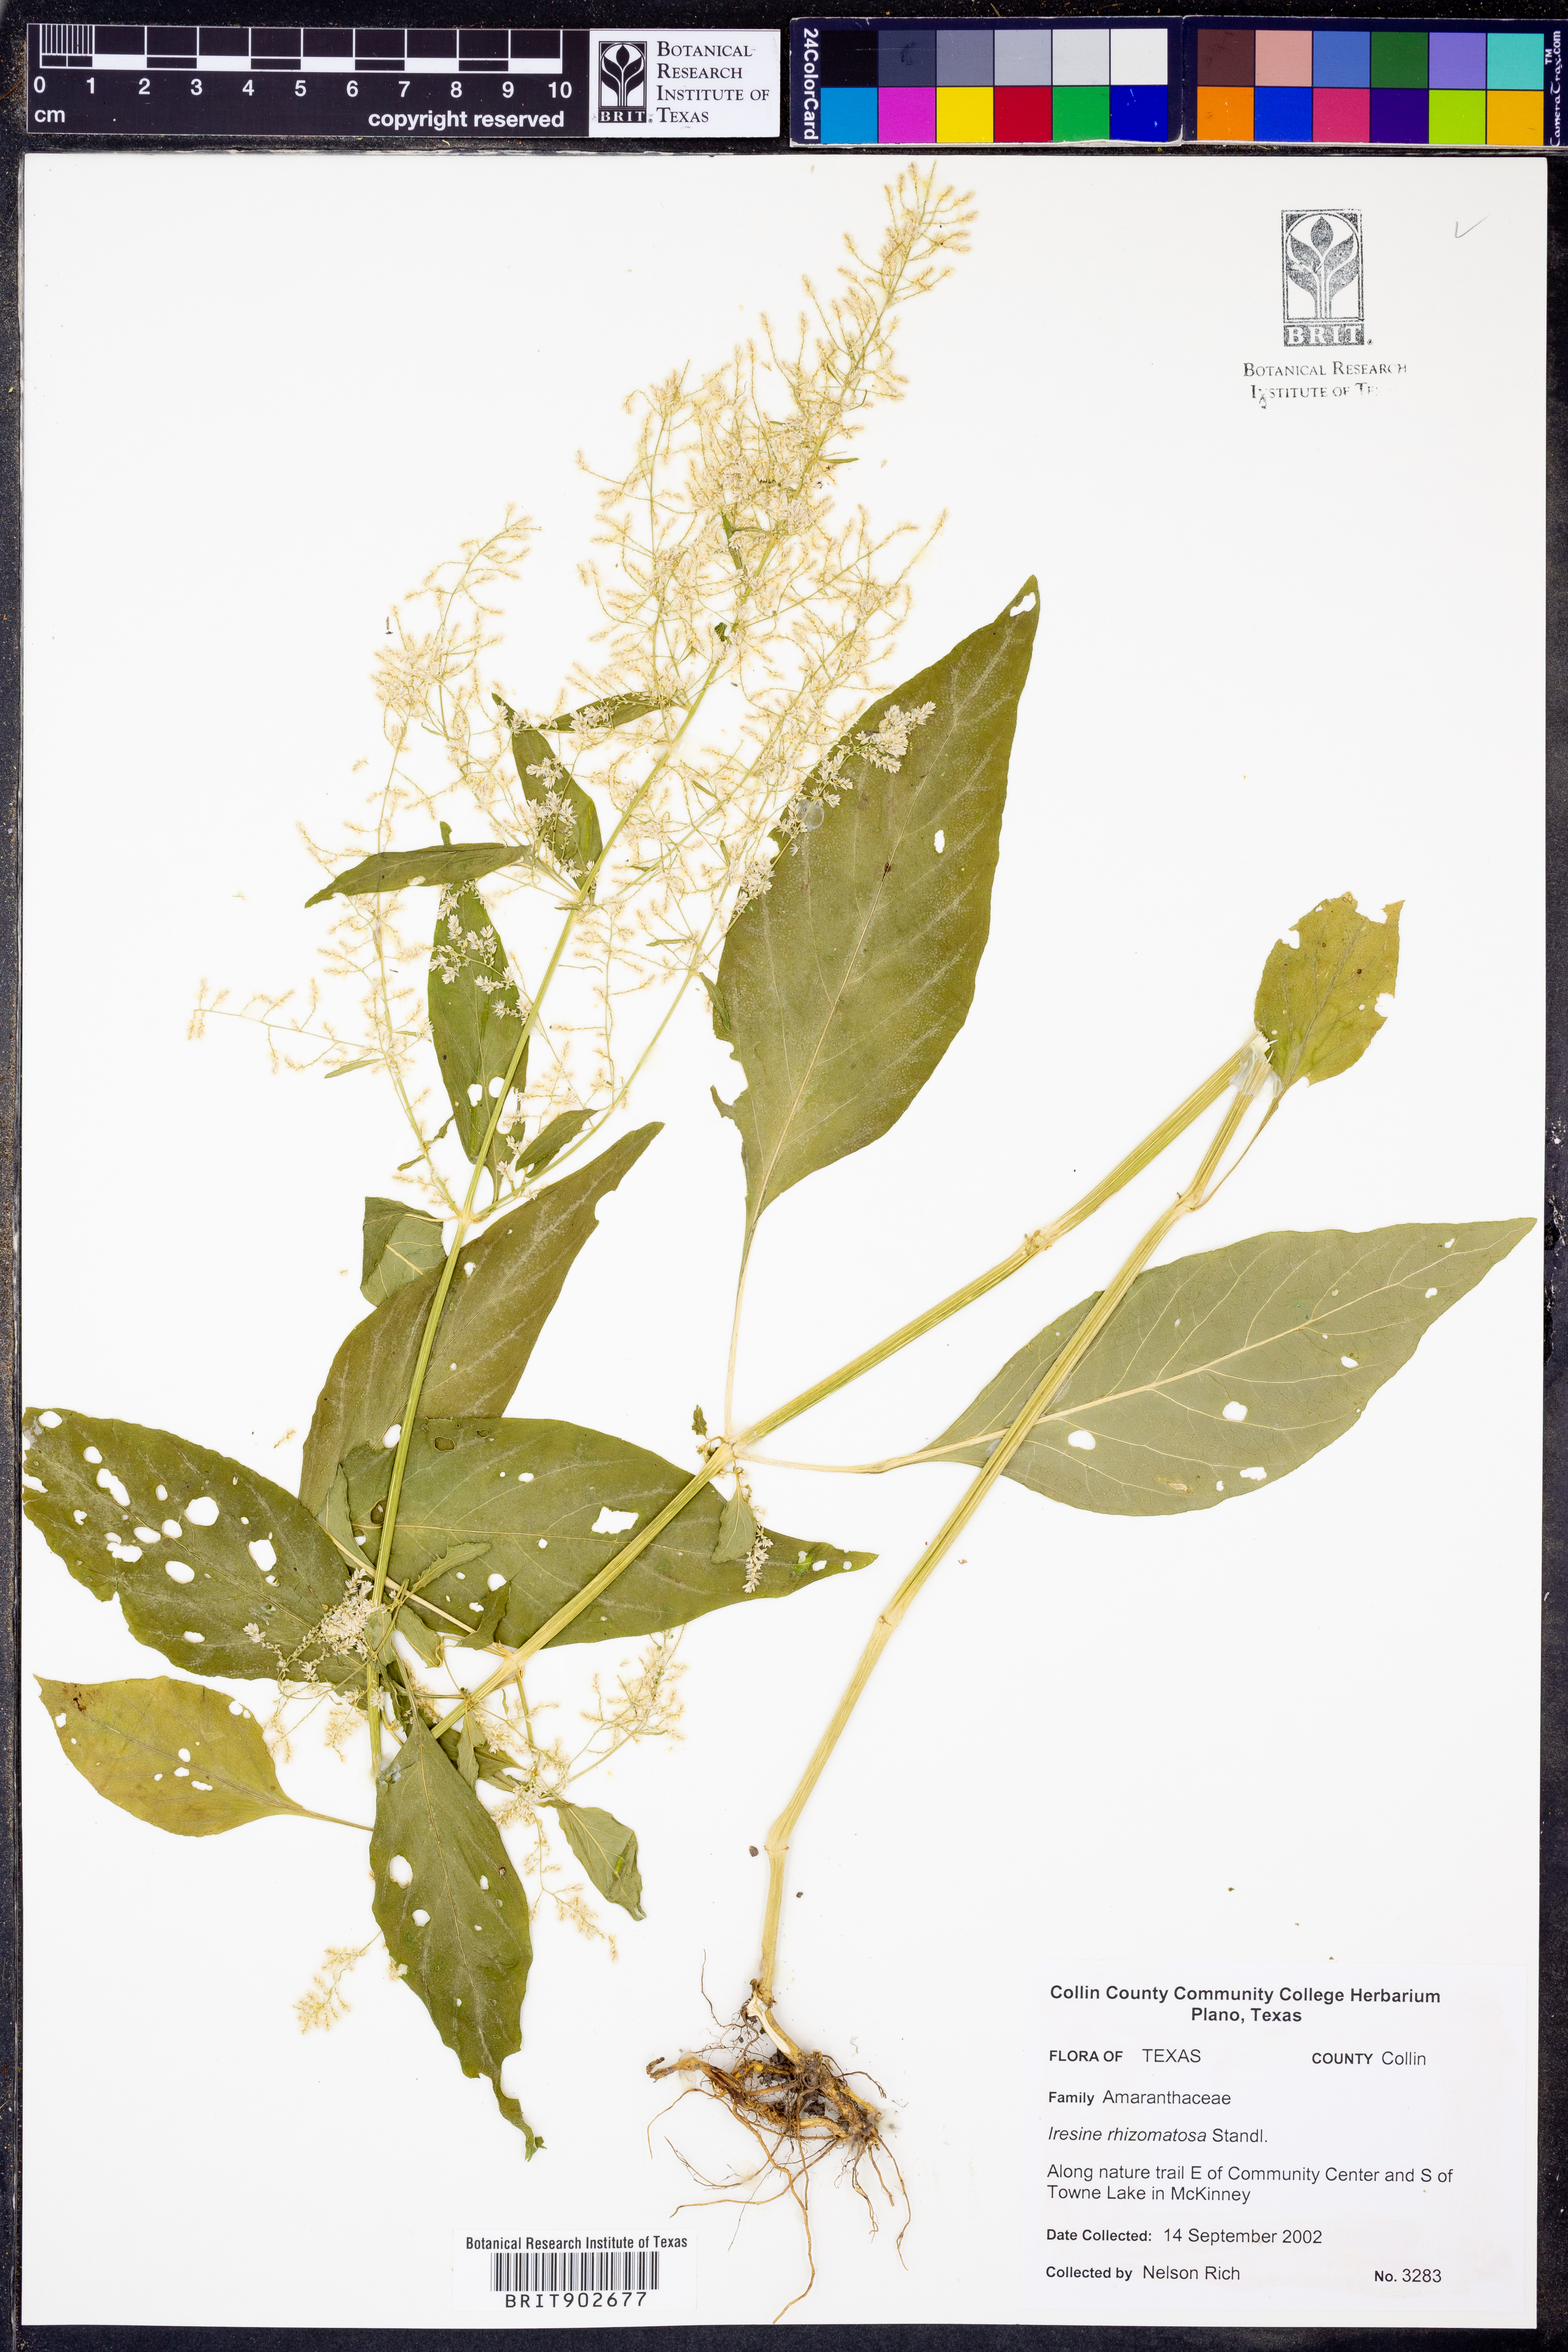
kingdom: Plantae
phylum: Tracheophyta
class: Magnoliopsida
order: Caryophyllales
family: Amaranthaceae
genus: Iresine
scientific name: Iresine rhizomatosa
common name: Juda's-bush
